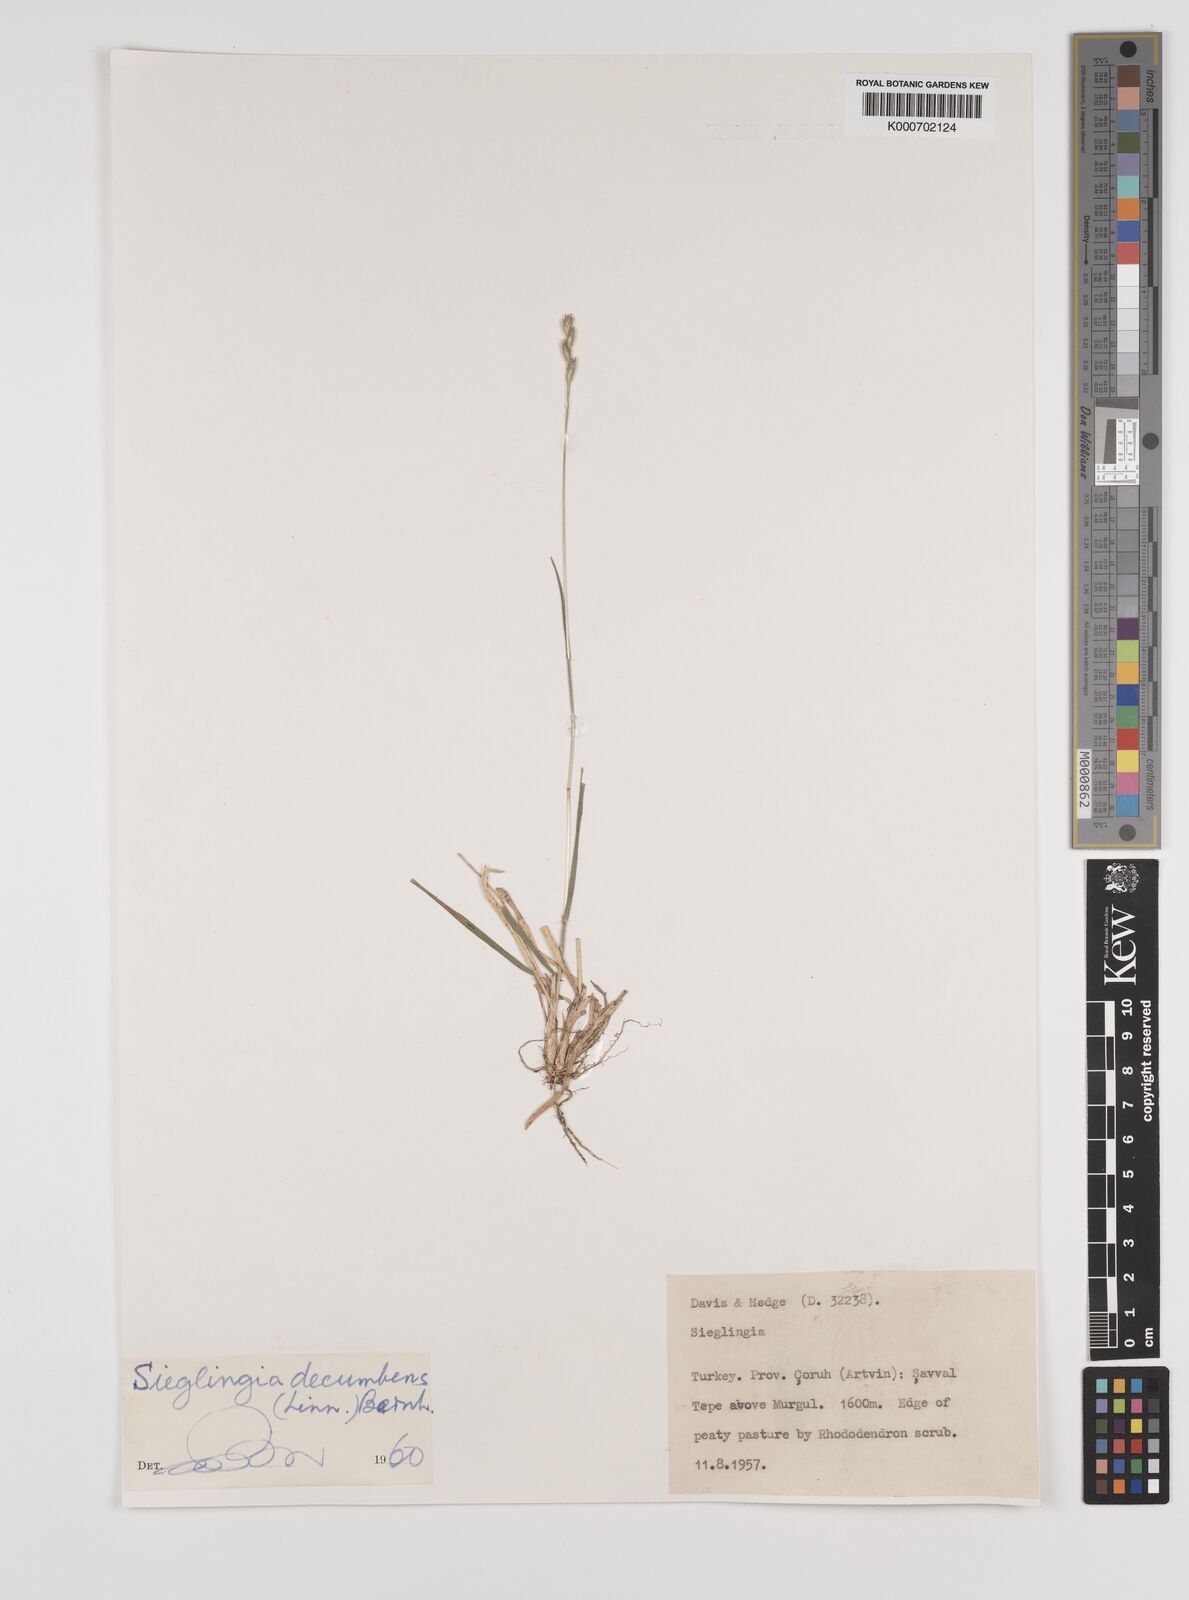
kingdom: Plantae
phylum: Tracheophyta
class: Liliopsida
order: Poales
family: Poaceae
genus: Danthonia
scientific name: Danthonia alpina
